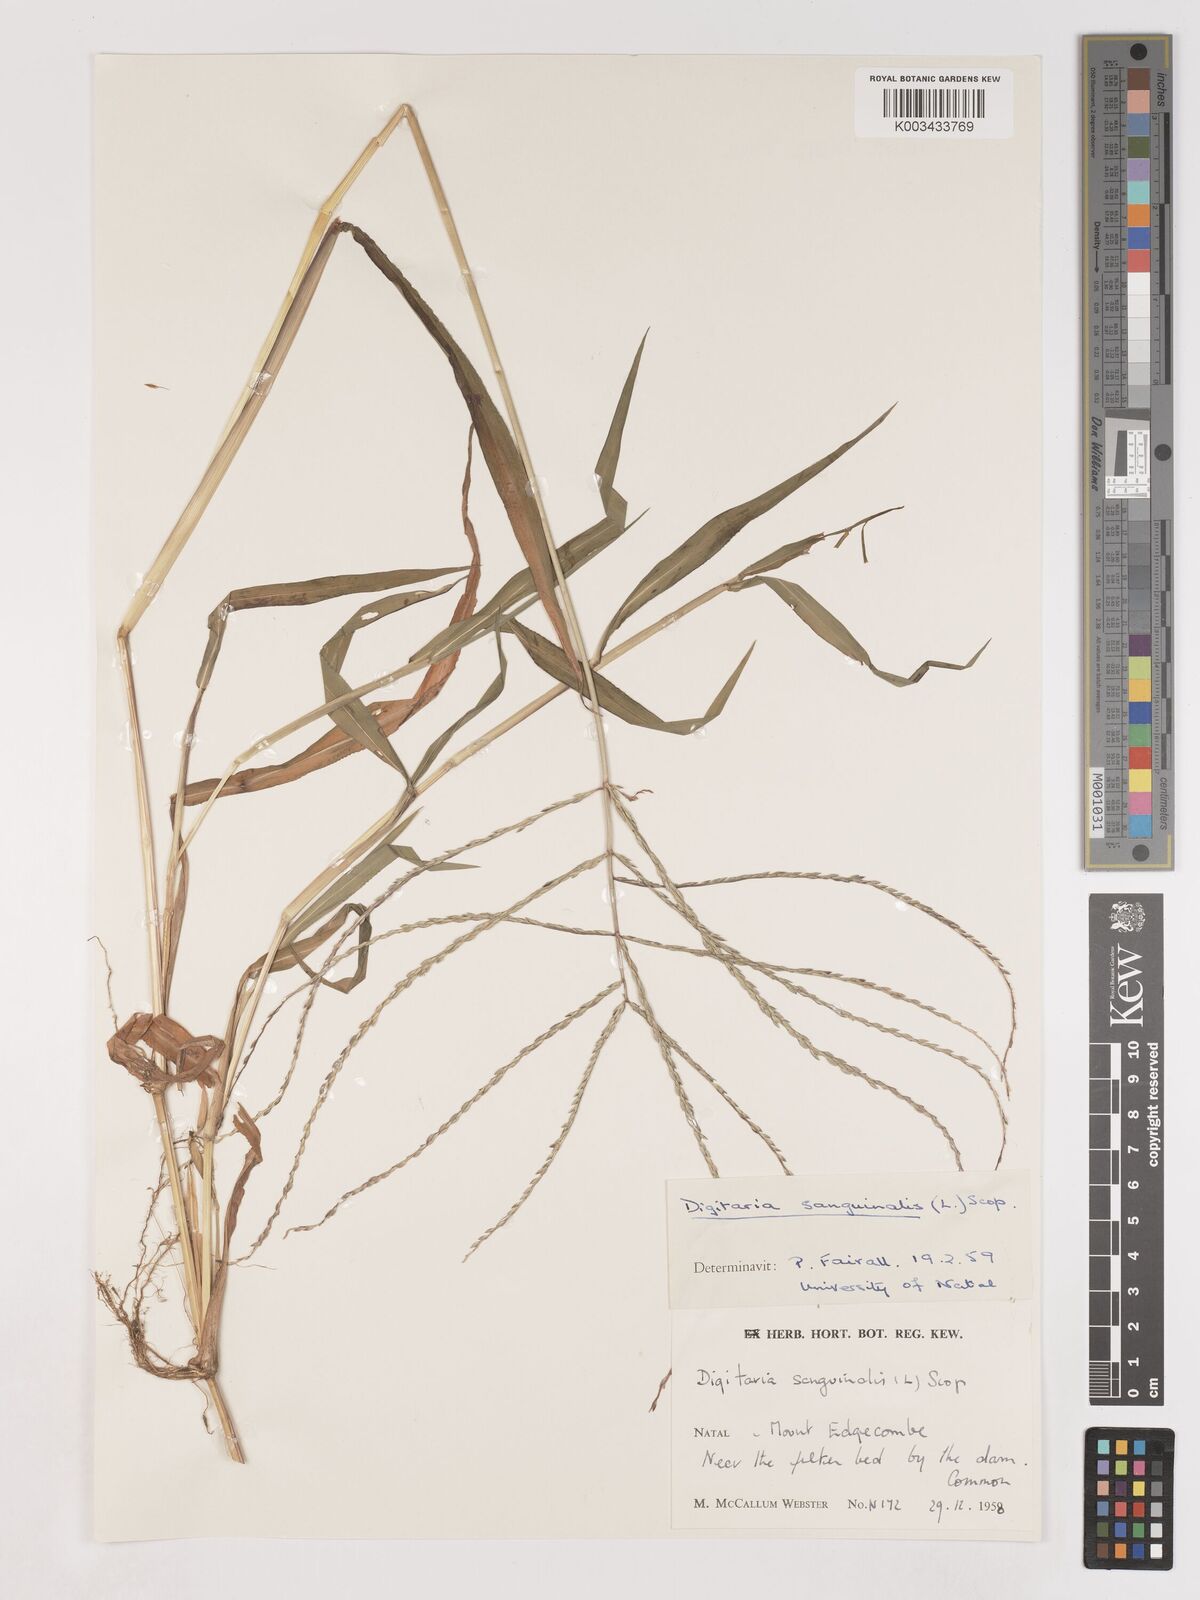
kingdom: Plantae
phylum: Tracheophyta
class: Liliopsida
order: Poales
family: Poaceae
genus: Digitaria
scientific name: Digitaria ciliaris
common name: Tropical finger-grass
